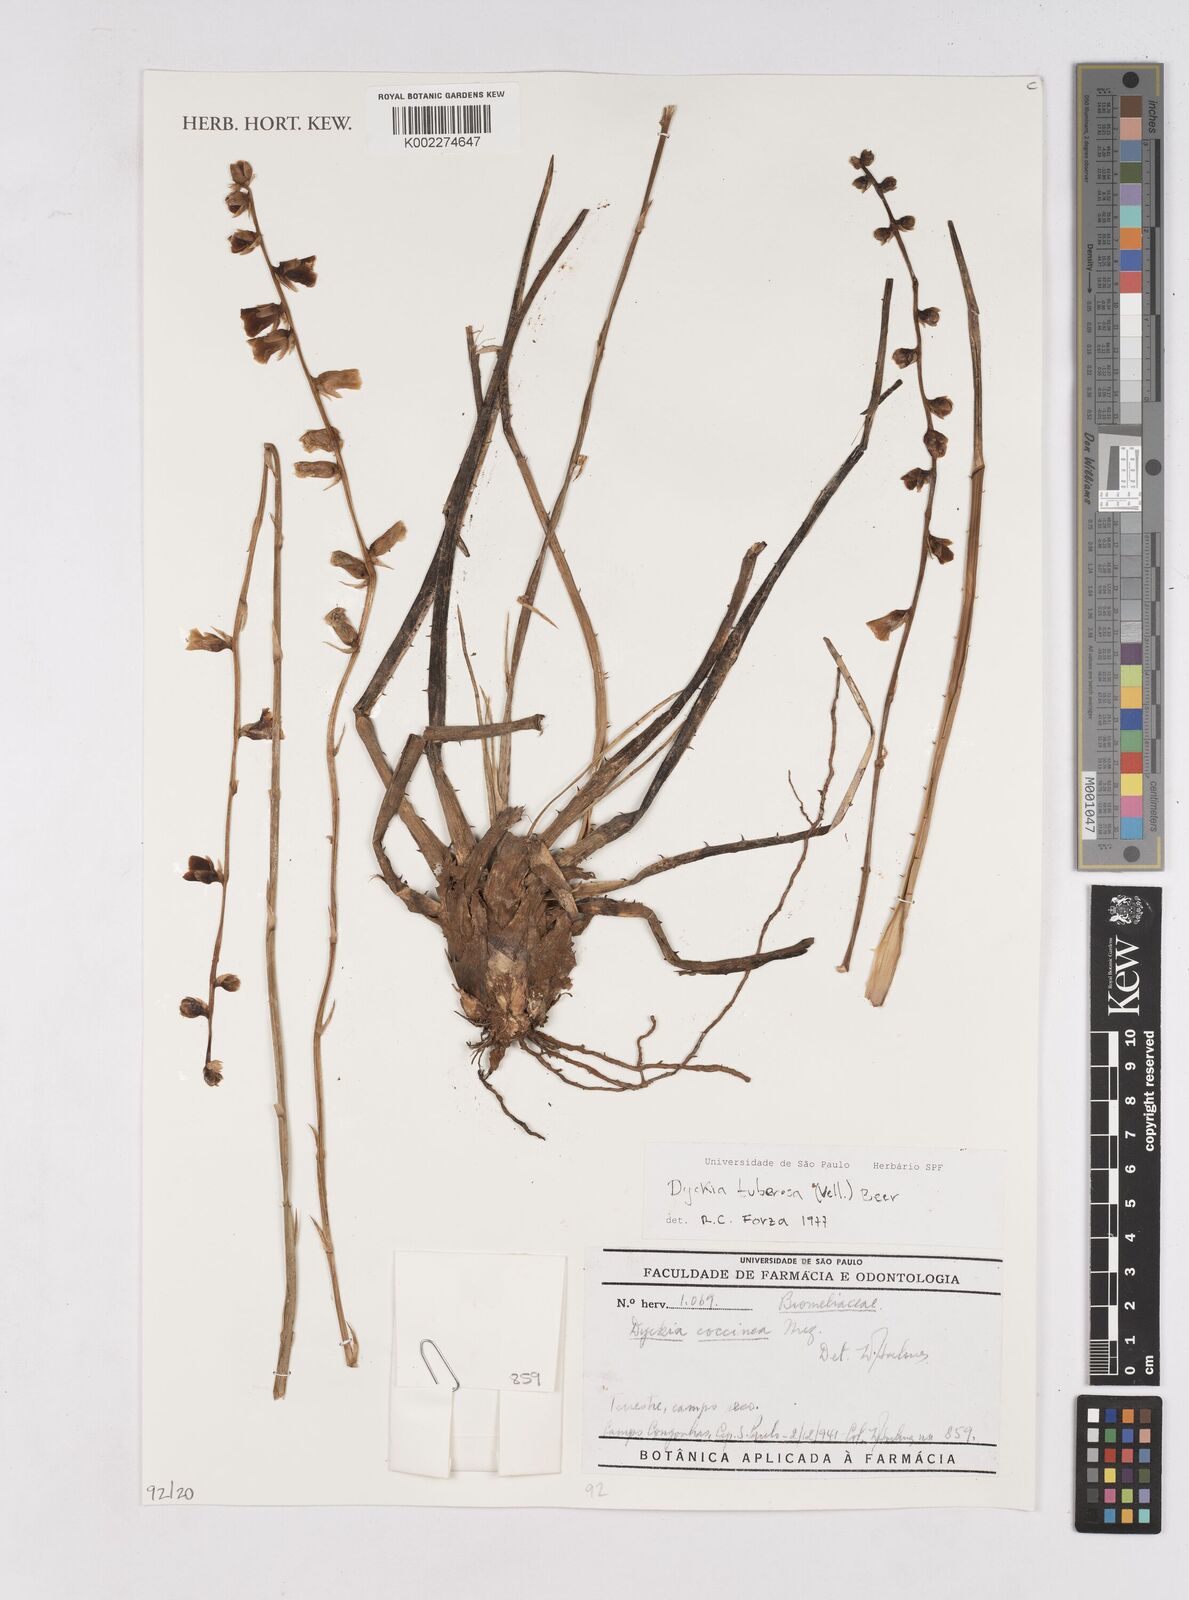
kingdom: Plantae
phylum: Tracheophyta
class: Liliopsida
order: Poales
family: Bromeliaceae
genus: Dyckia
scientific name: Dyckia tuberosa
